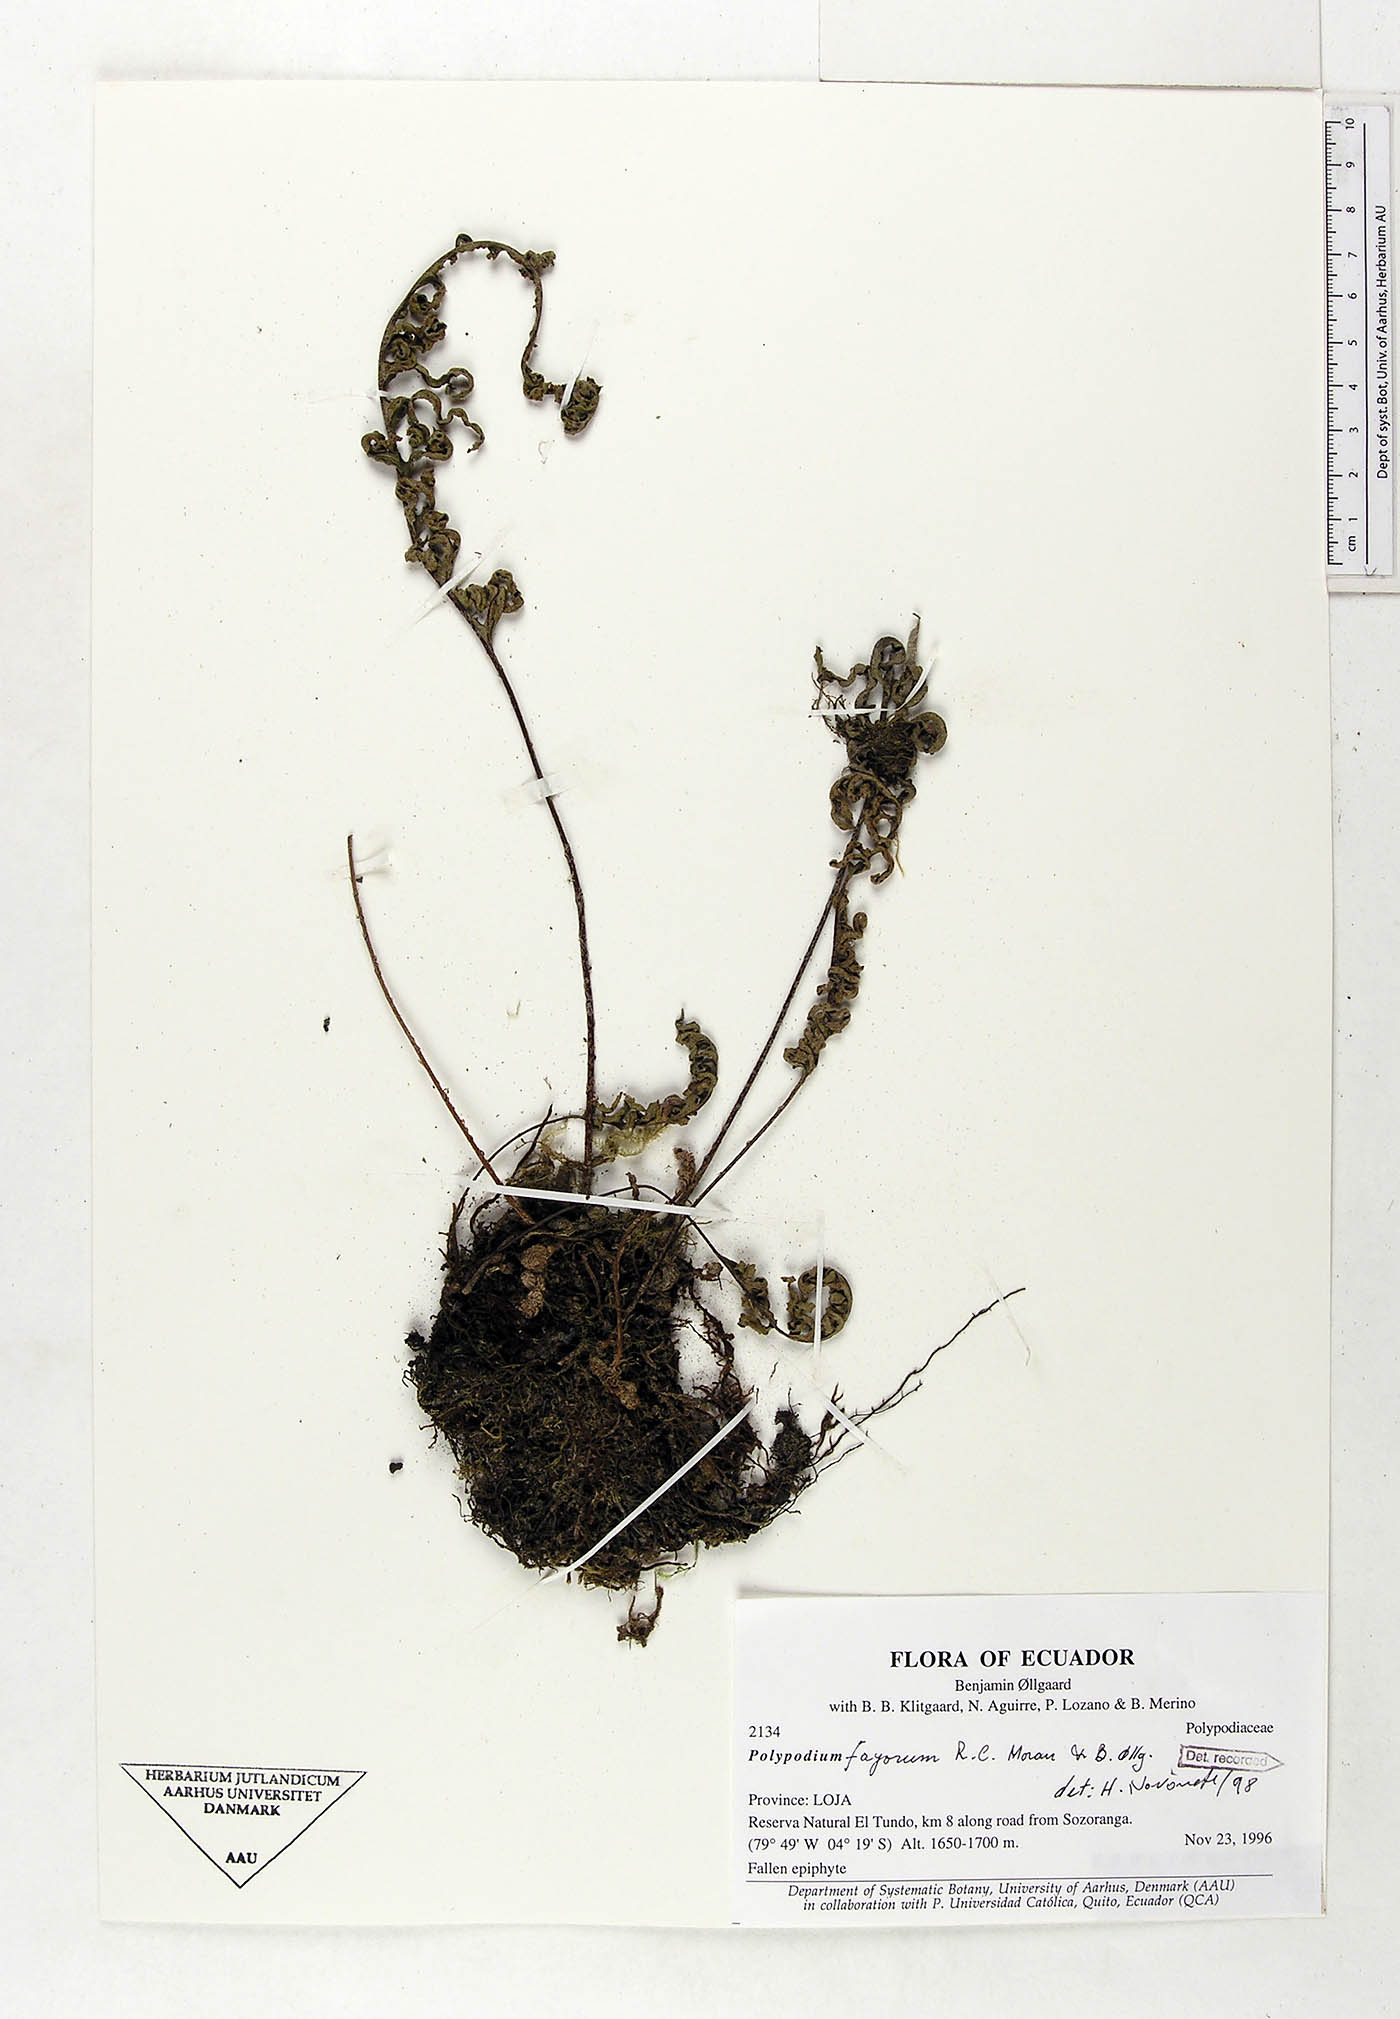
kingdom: Plantae
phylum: Tracheophyta
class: Polypodiopsida
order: Polypodiales
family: Polypodiaceae
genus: Pleopeltis
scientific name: Pleopeltis fayorum
